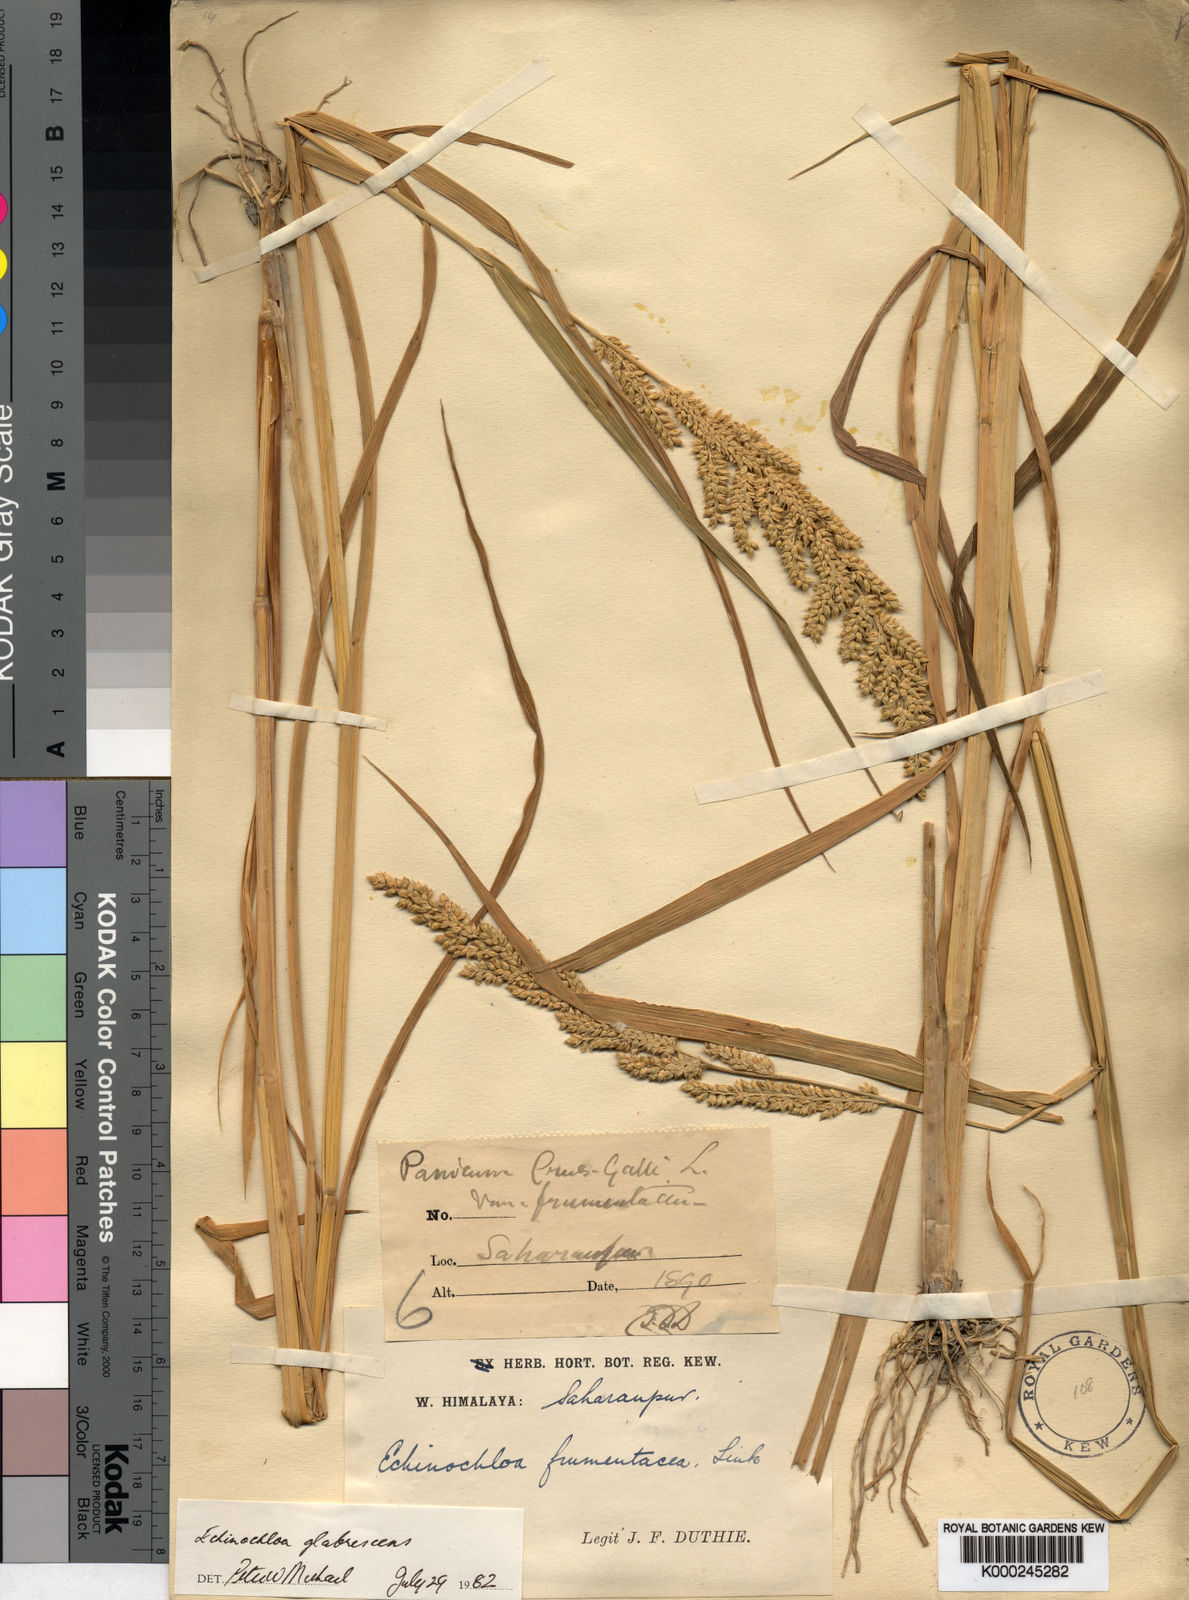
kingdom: Plantae
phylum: Tracheophyta
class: Liliopsida
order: Poales
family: Poaceae
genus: Echinochloa
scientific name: Echinochloa crus-galli
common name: Cockspur
